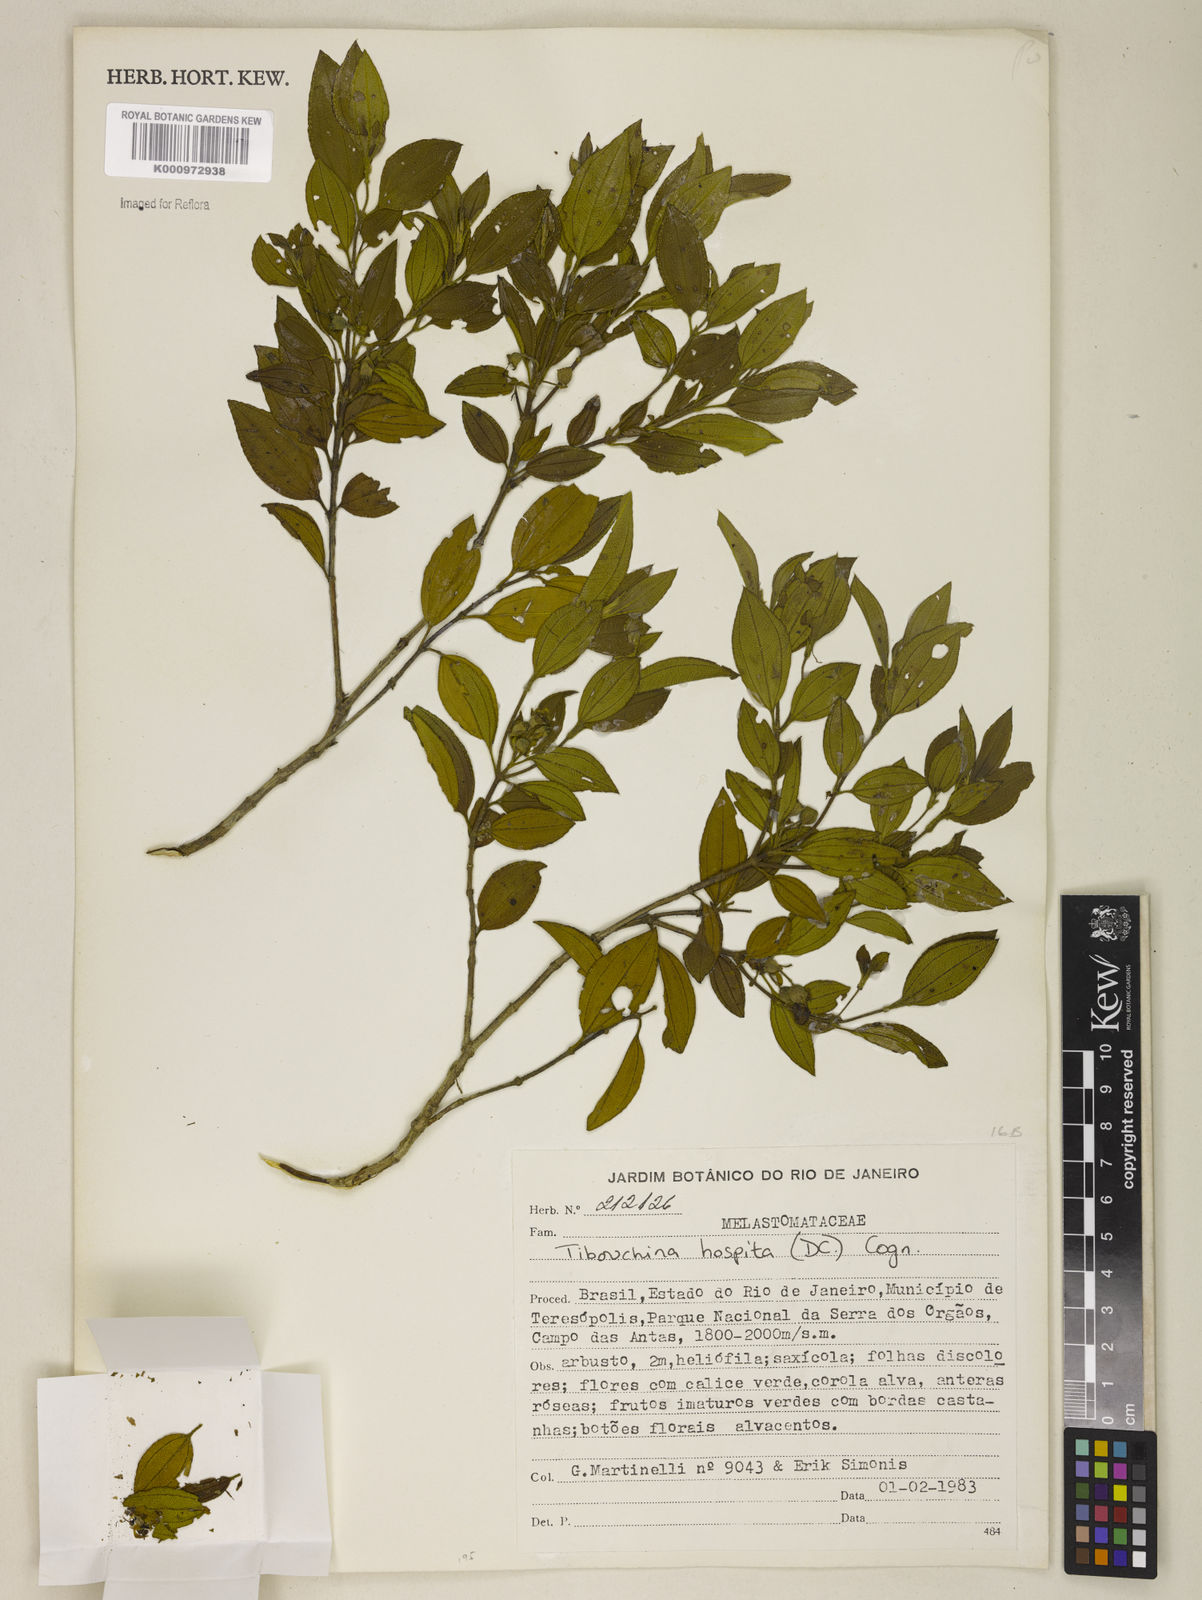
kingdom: Plantae
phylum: Tracheophyta
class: Magnoliopsida
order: Myrtales
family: Melastomataceae
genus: Pleroma
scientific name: Pleroma hospitum
